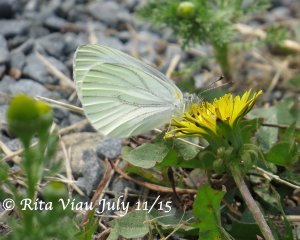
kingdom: Animalia
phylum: Arthropoda
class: Insecta
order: Lepidoptera
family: Pieridae
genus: Pieris
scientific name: Pieris oleracea
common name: Mustard White
